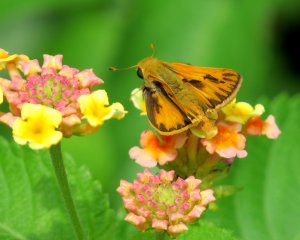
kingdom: Animalia
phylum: Arthropoda
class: Insecta
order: Lepidoptera
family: Hesperiidae
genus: Hylephila
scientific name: Hylephila phyleus
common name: Fiery Skipper
